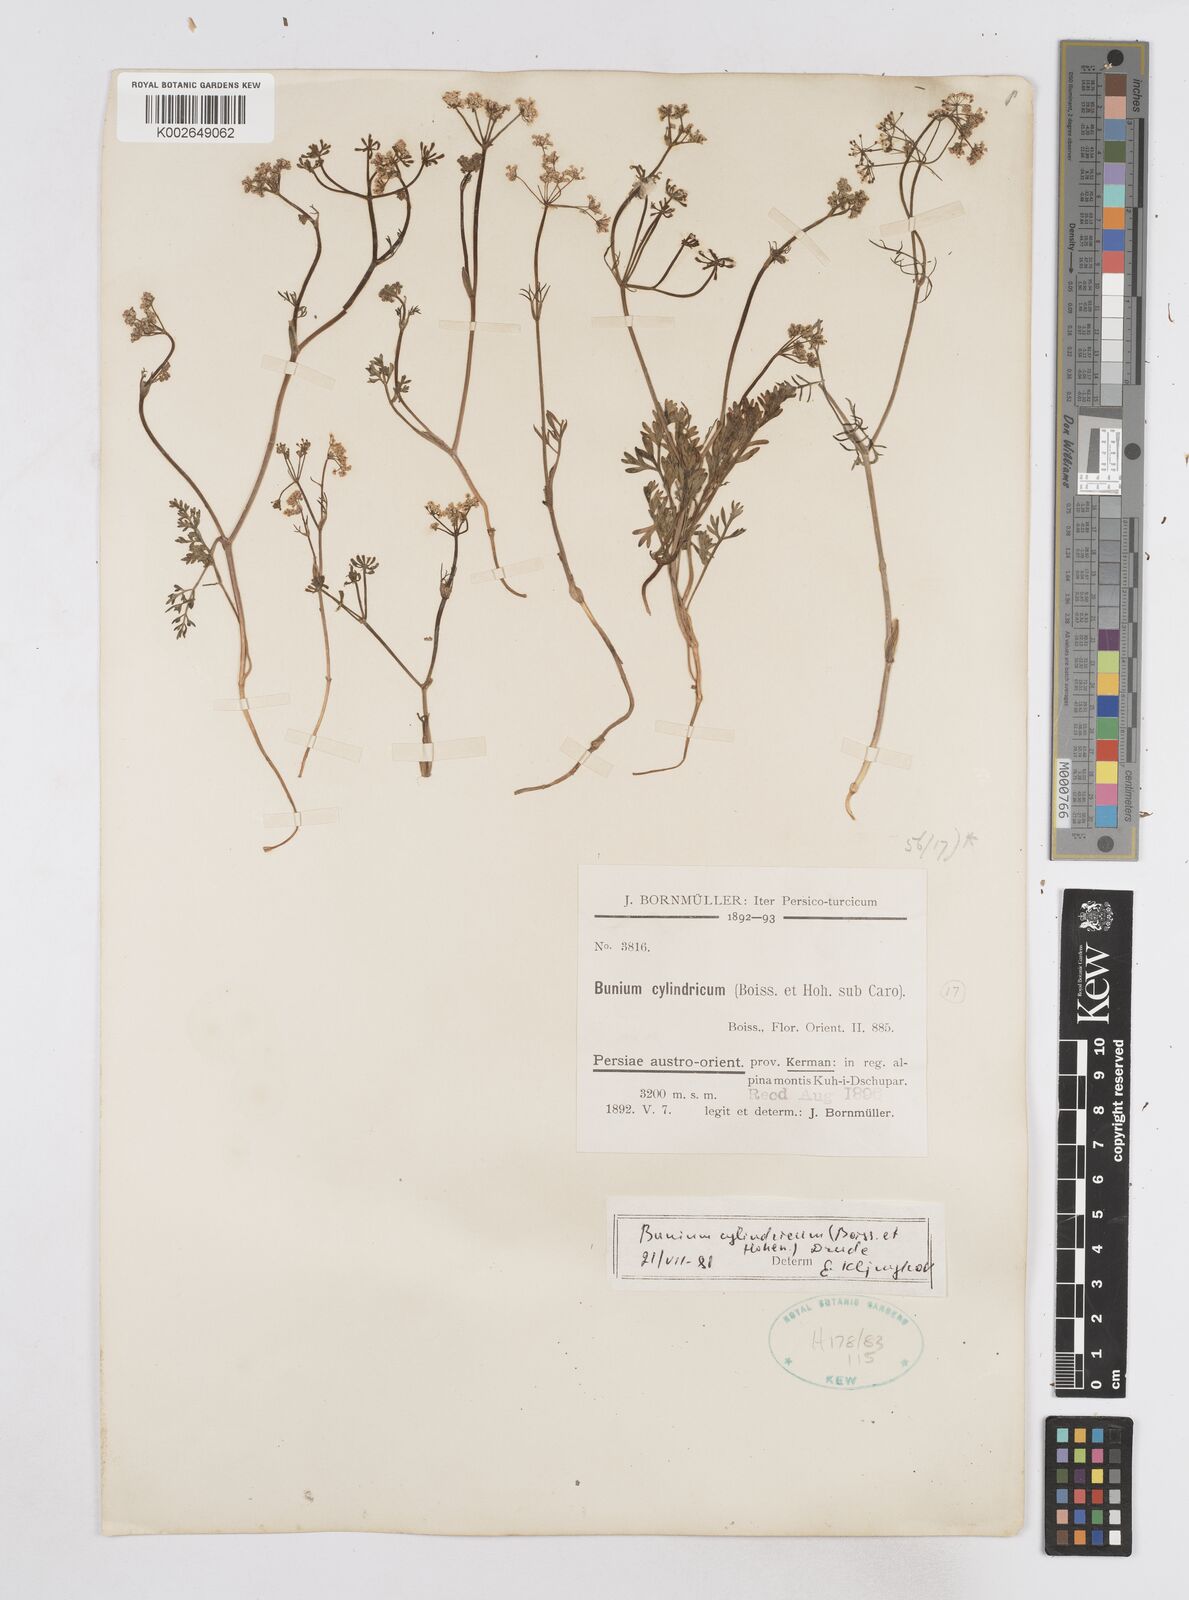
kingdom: Plantae
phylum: Tracheophyta
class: Magnoliopsida
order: Apiales
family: Apiaceae
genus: Elwendia
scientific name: Elwendia cylindrica
